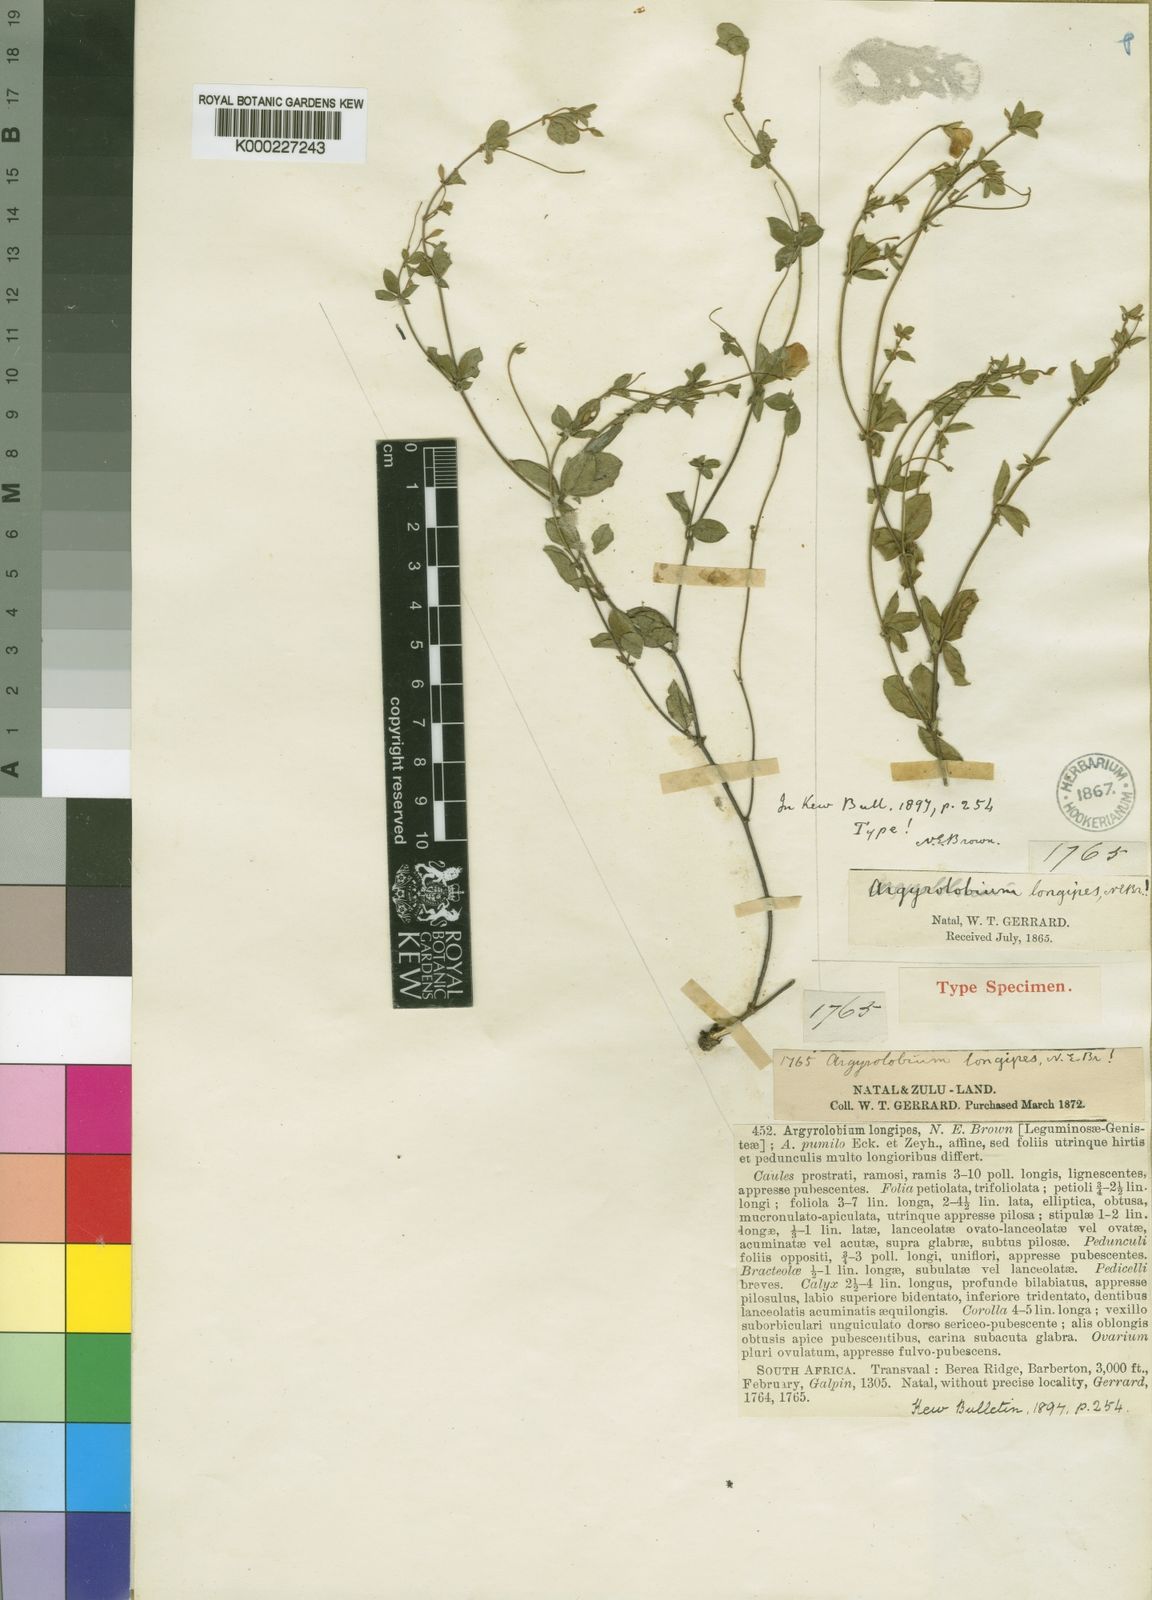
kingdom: Plantae
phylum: Tracheophyta
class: Magnoliopsida
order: Fabales
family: Fabaceae
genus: Argyrolobium
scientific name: Argyrolobium ascendens
